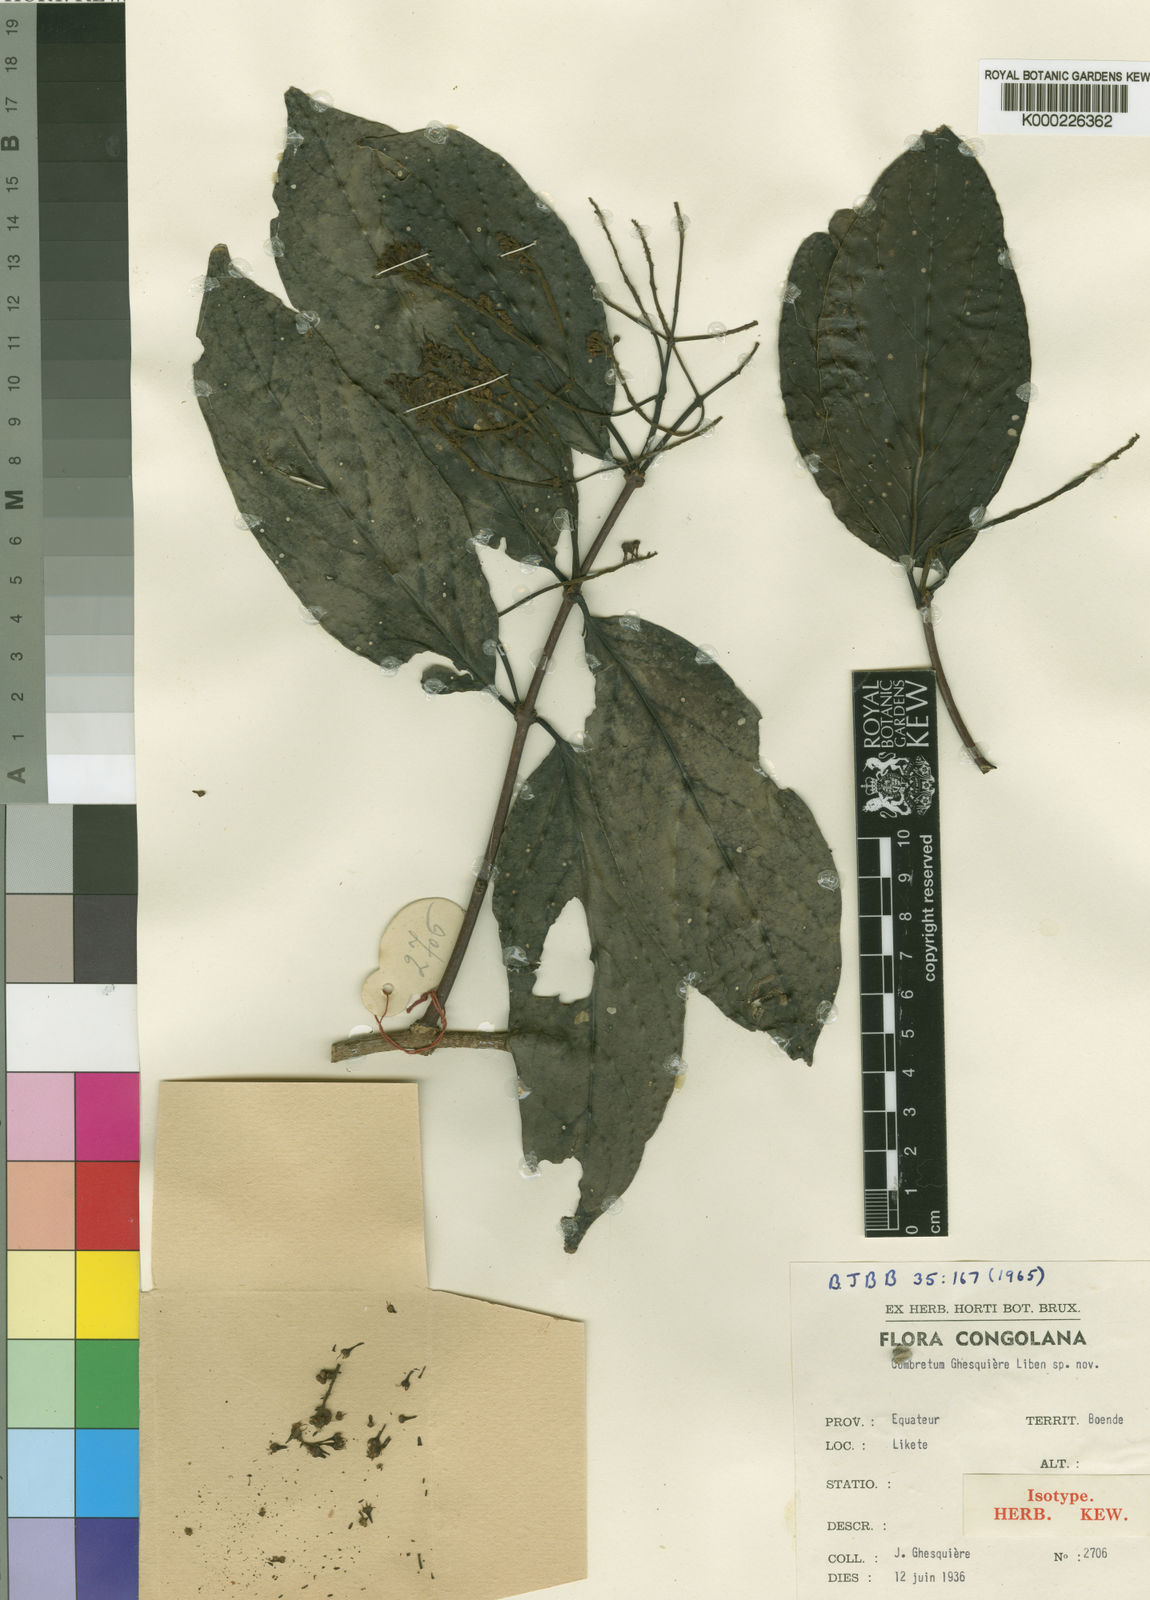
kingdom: Plantae
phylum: Tracheophyta
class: Magnoliopsida
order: Myrtales
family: Combretaceae
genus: Combretum
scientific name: Combretum ghesquierei
